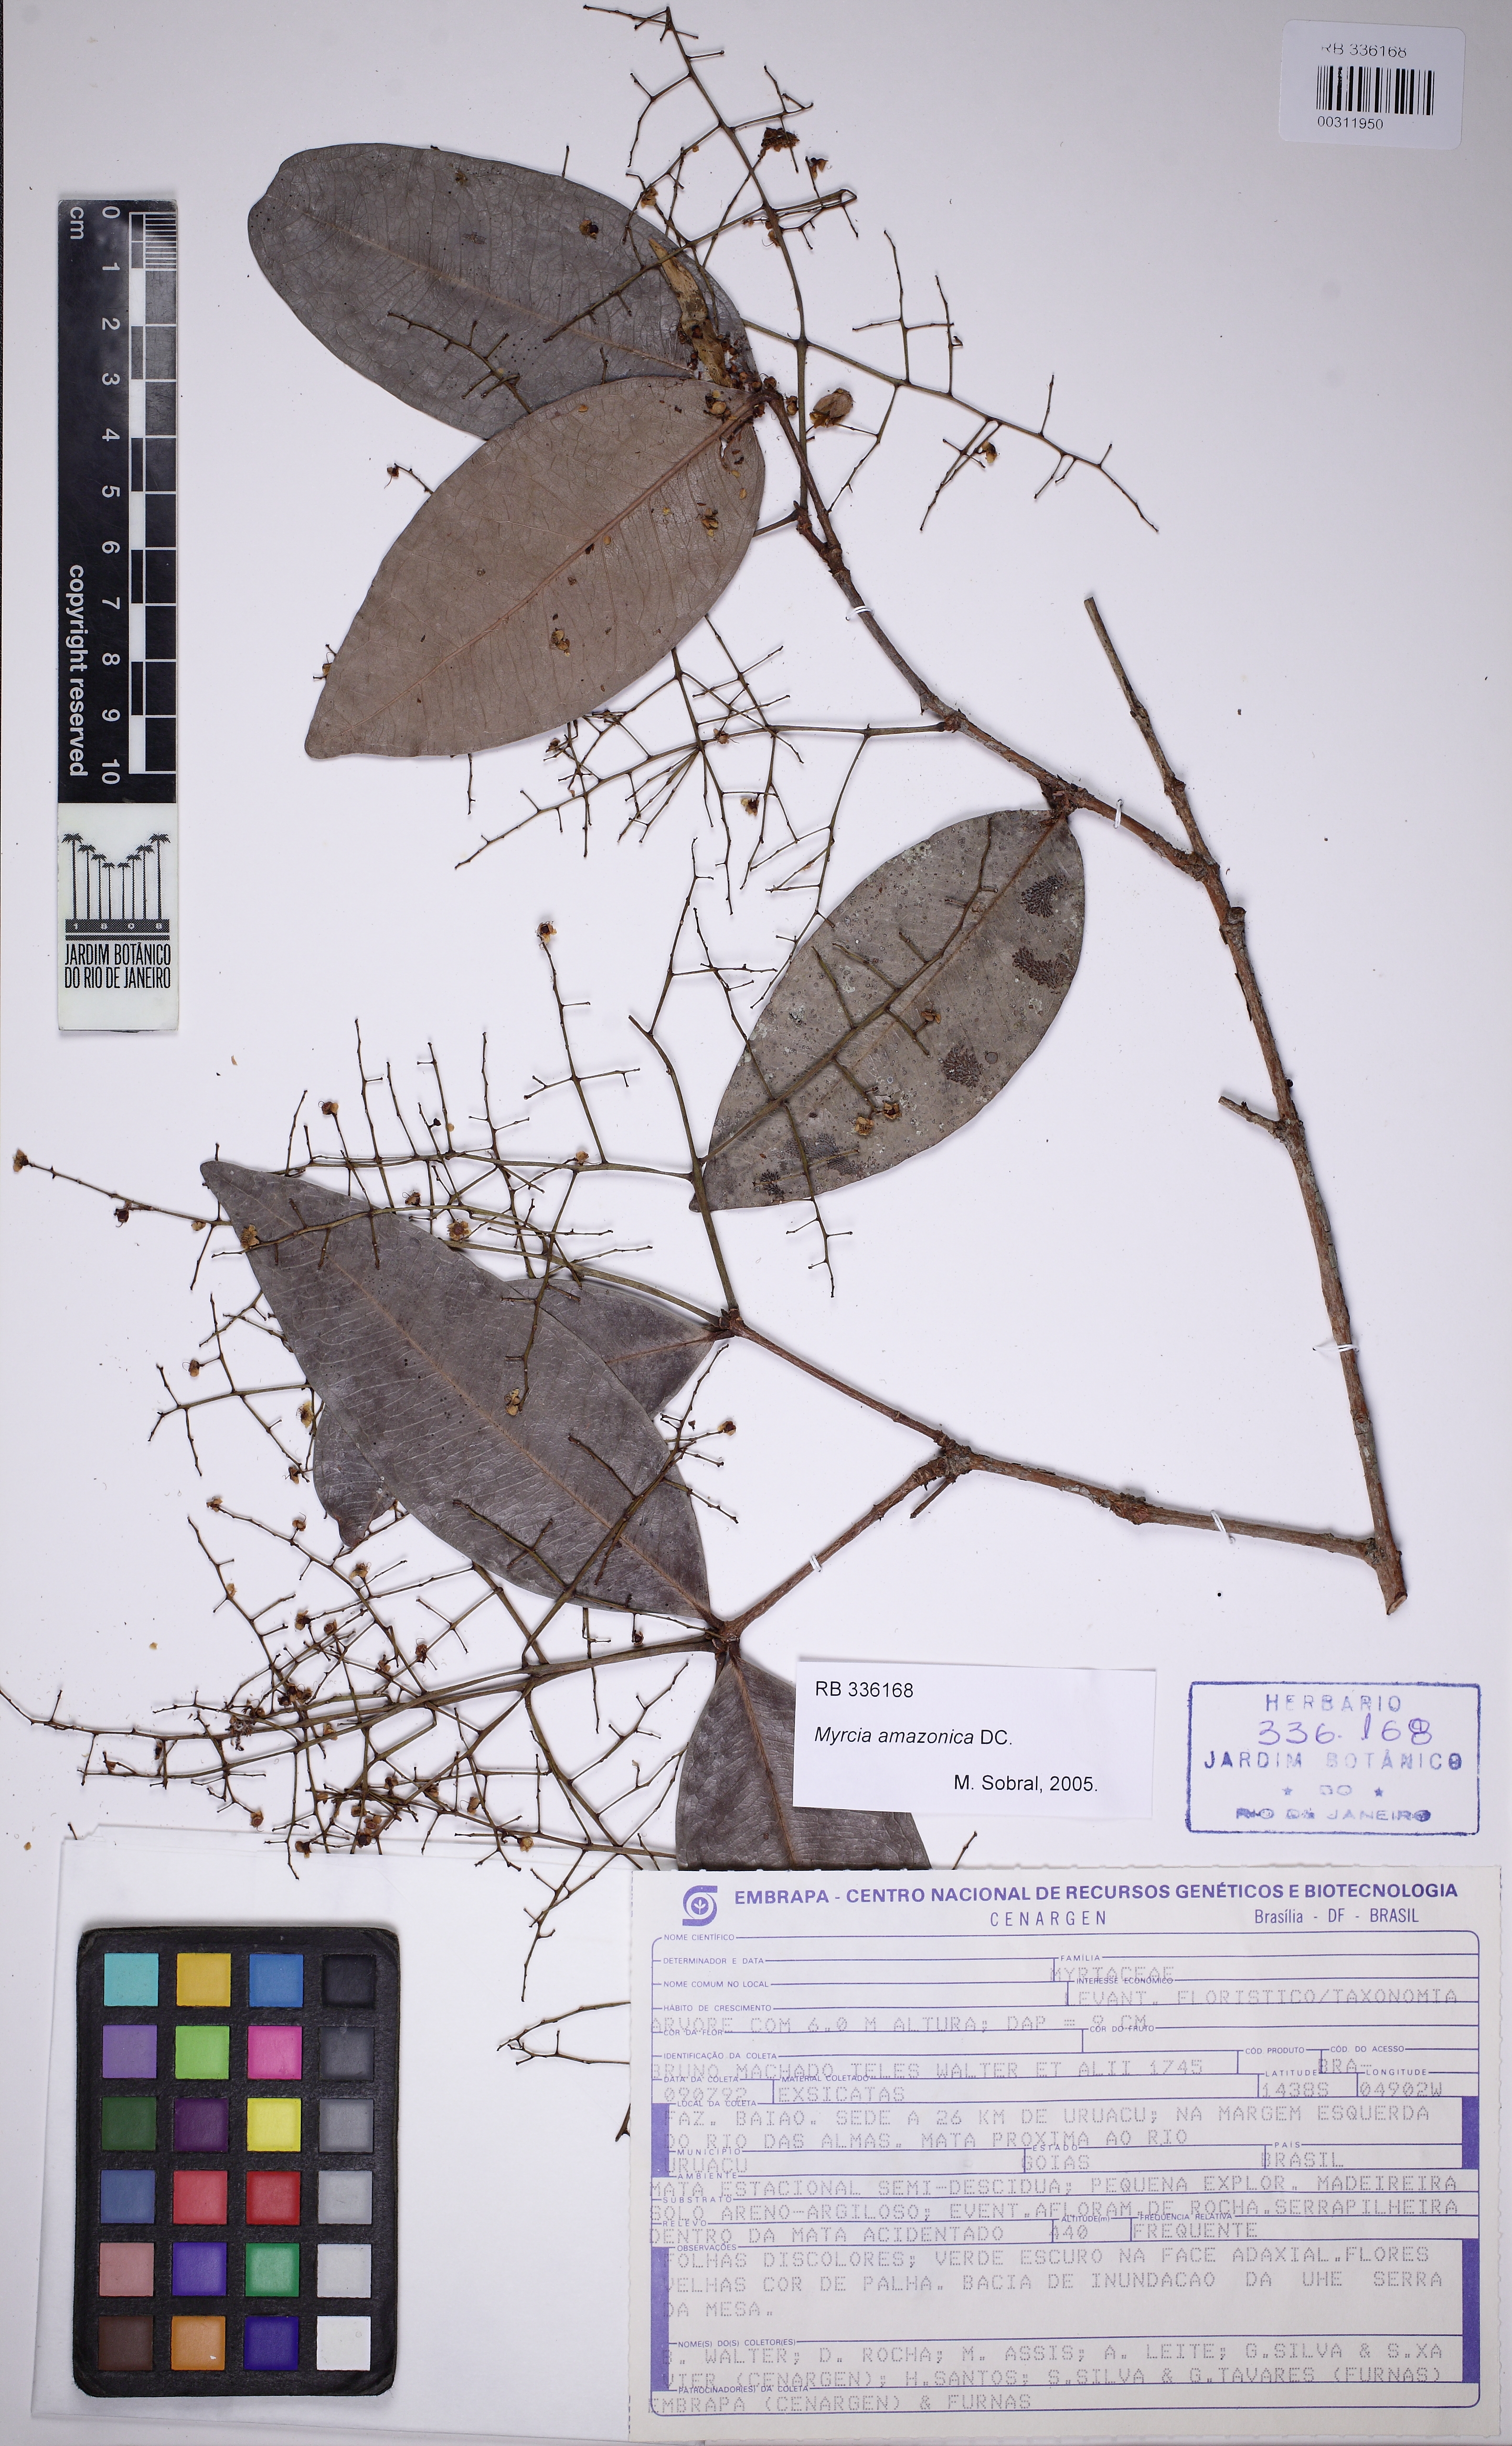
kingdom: Plantae
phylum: Tracheophyta
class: Magnoliopsida
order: Myrtales
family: Myrtaceae
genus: Myrcia
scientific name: Myrcia amazonica
